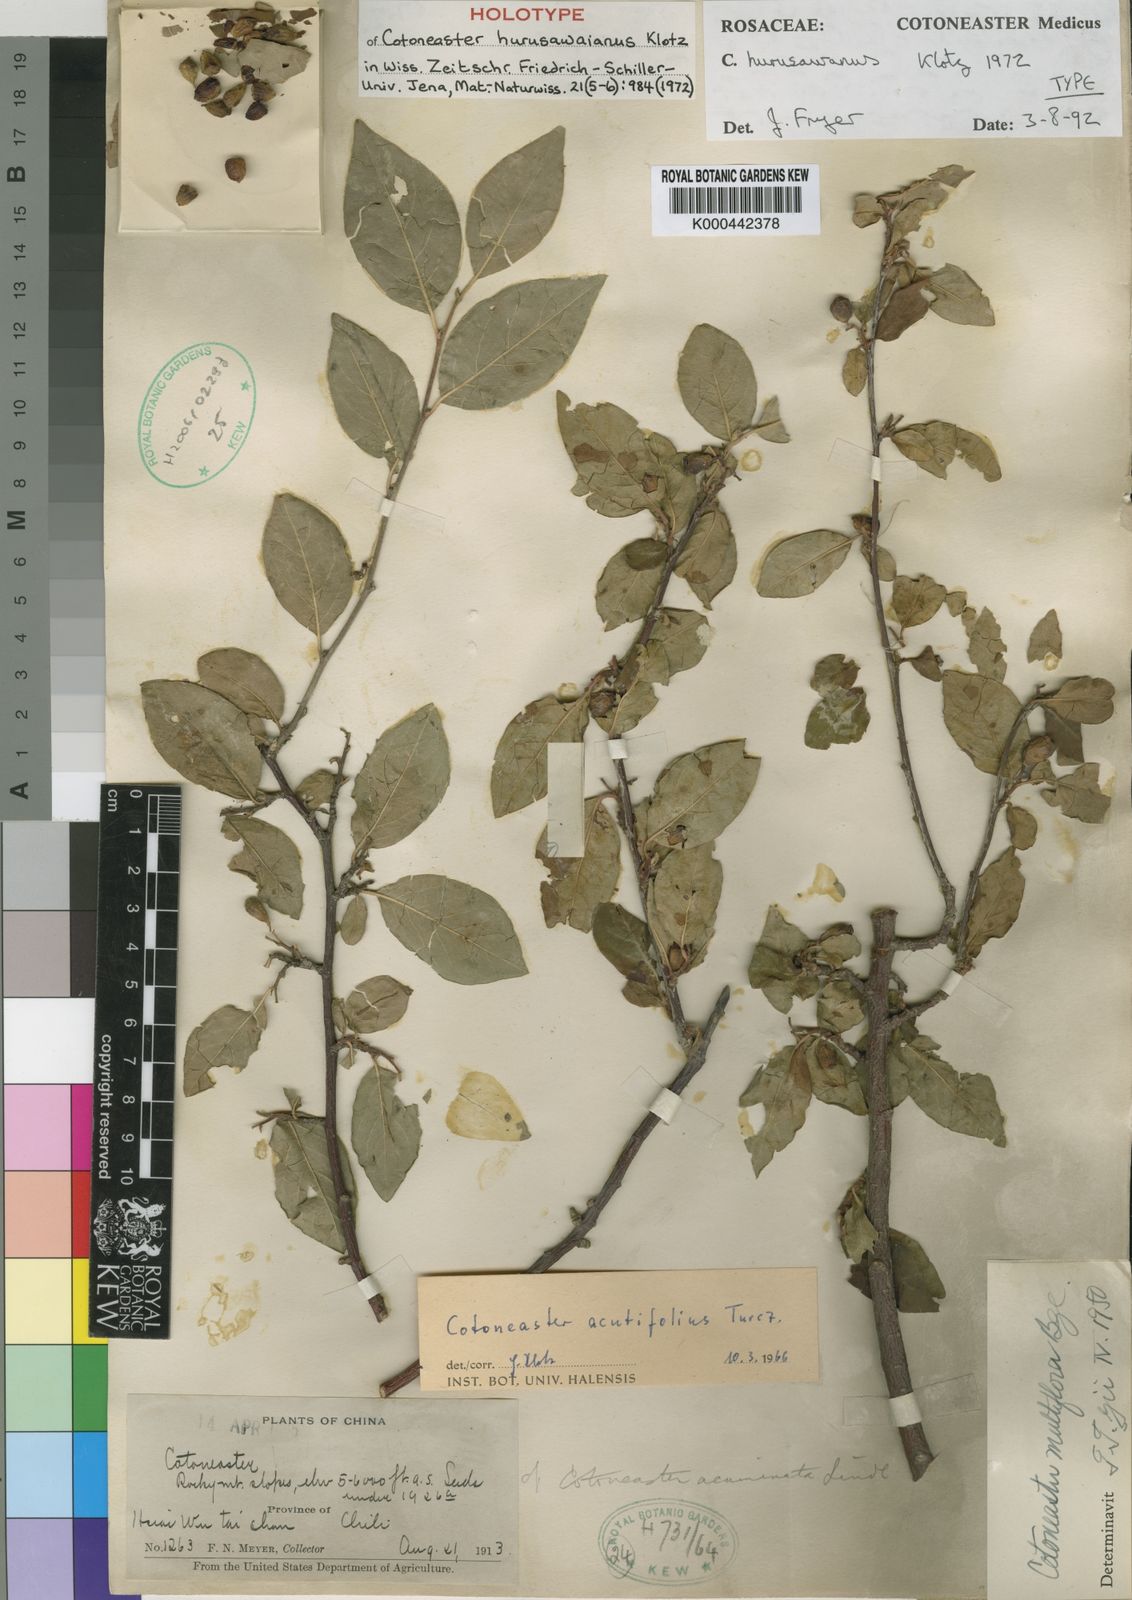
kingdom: Plantae
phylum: Tracheophyta
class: Magnoliopsida
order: Rosales
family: Rosaceae
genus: Cotoneaster
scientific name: Cotoneaster acutifolius
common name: Peking cotoneaster
